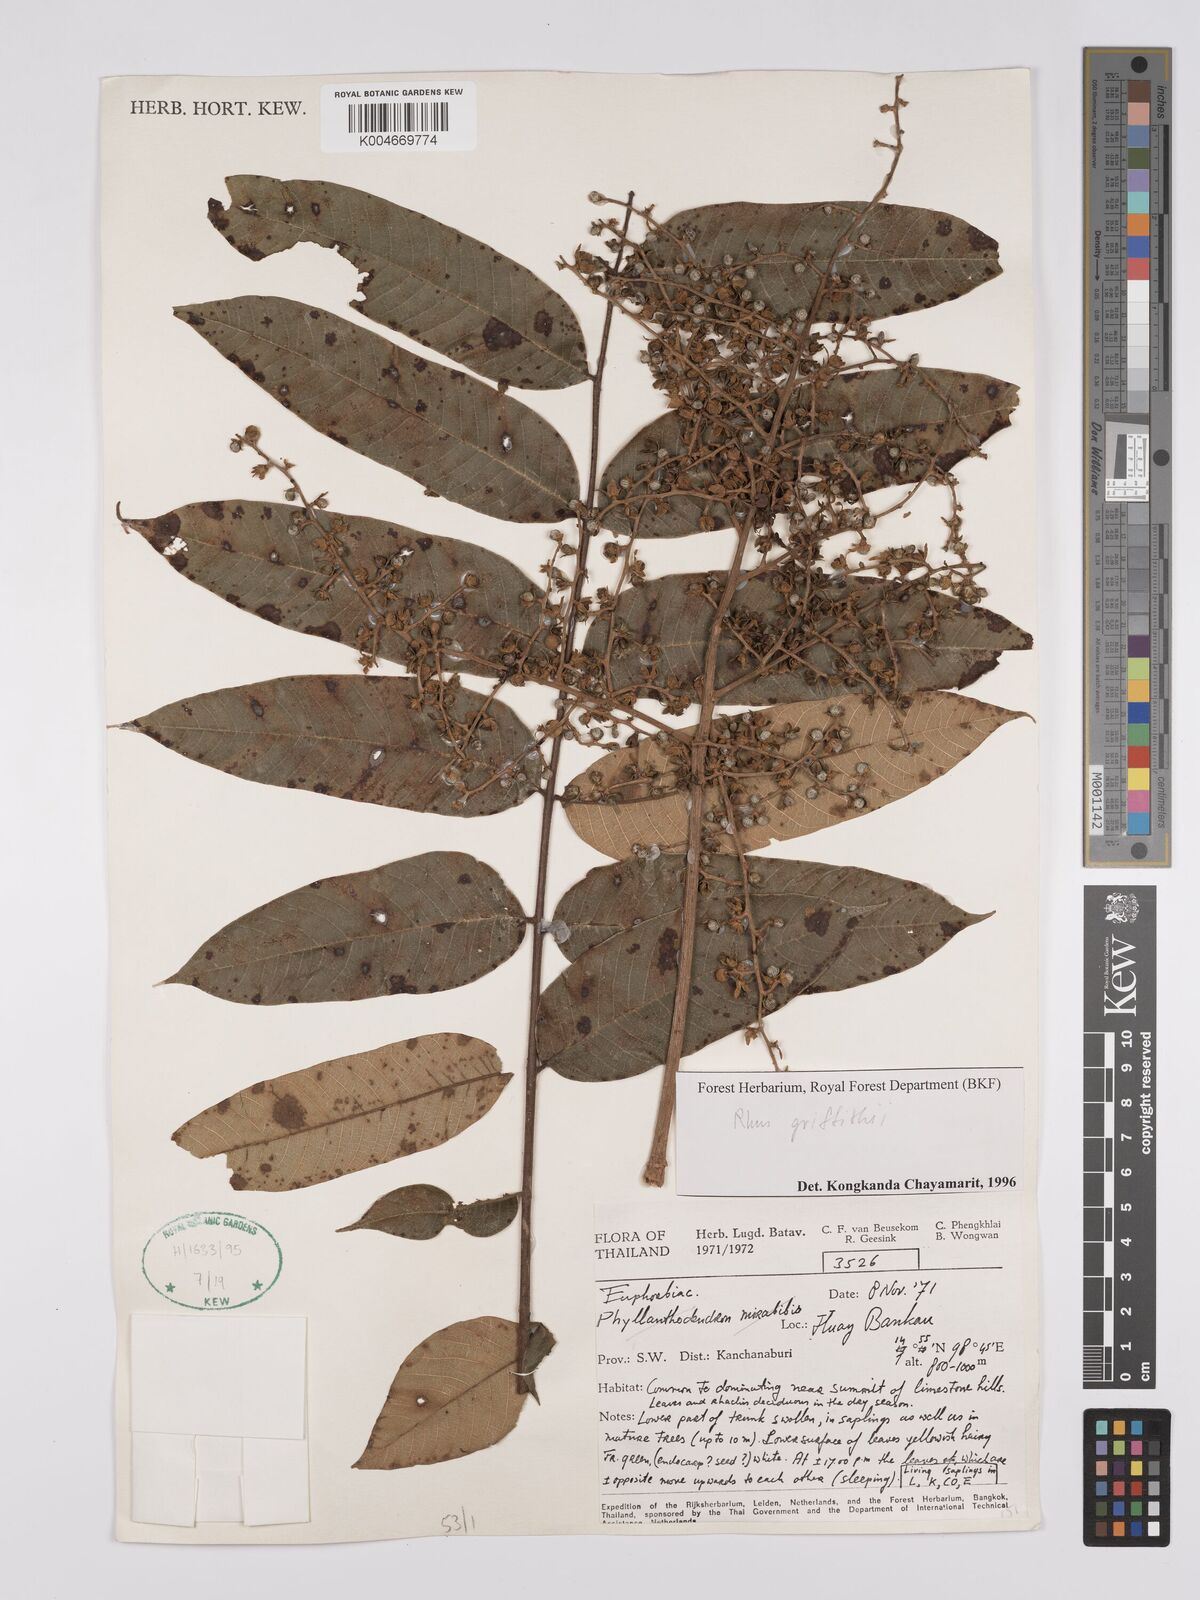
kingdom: Plantae
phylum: Tracheophyta
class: Magnoliopsida
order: Sapindales
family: Anacardiaceae
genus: Toxicodendron
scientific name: Toxicodendron griffithii
